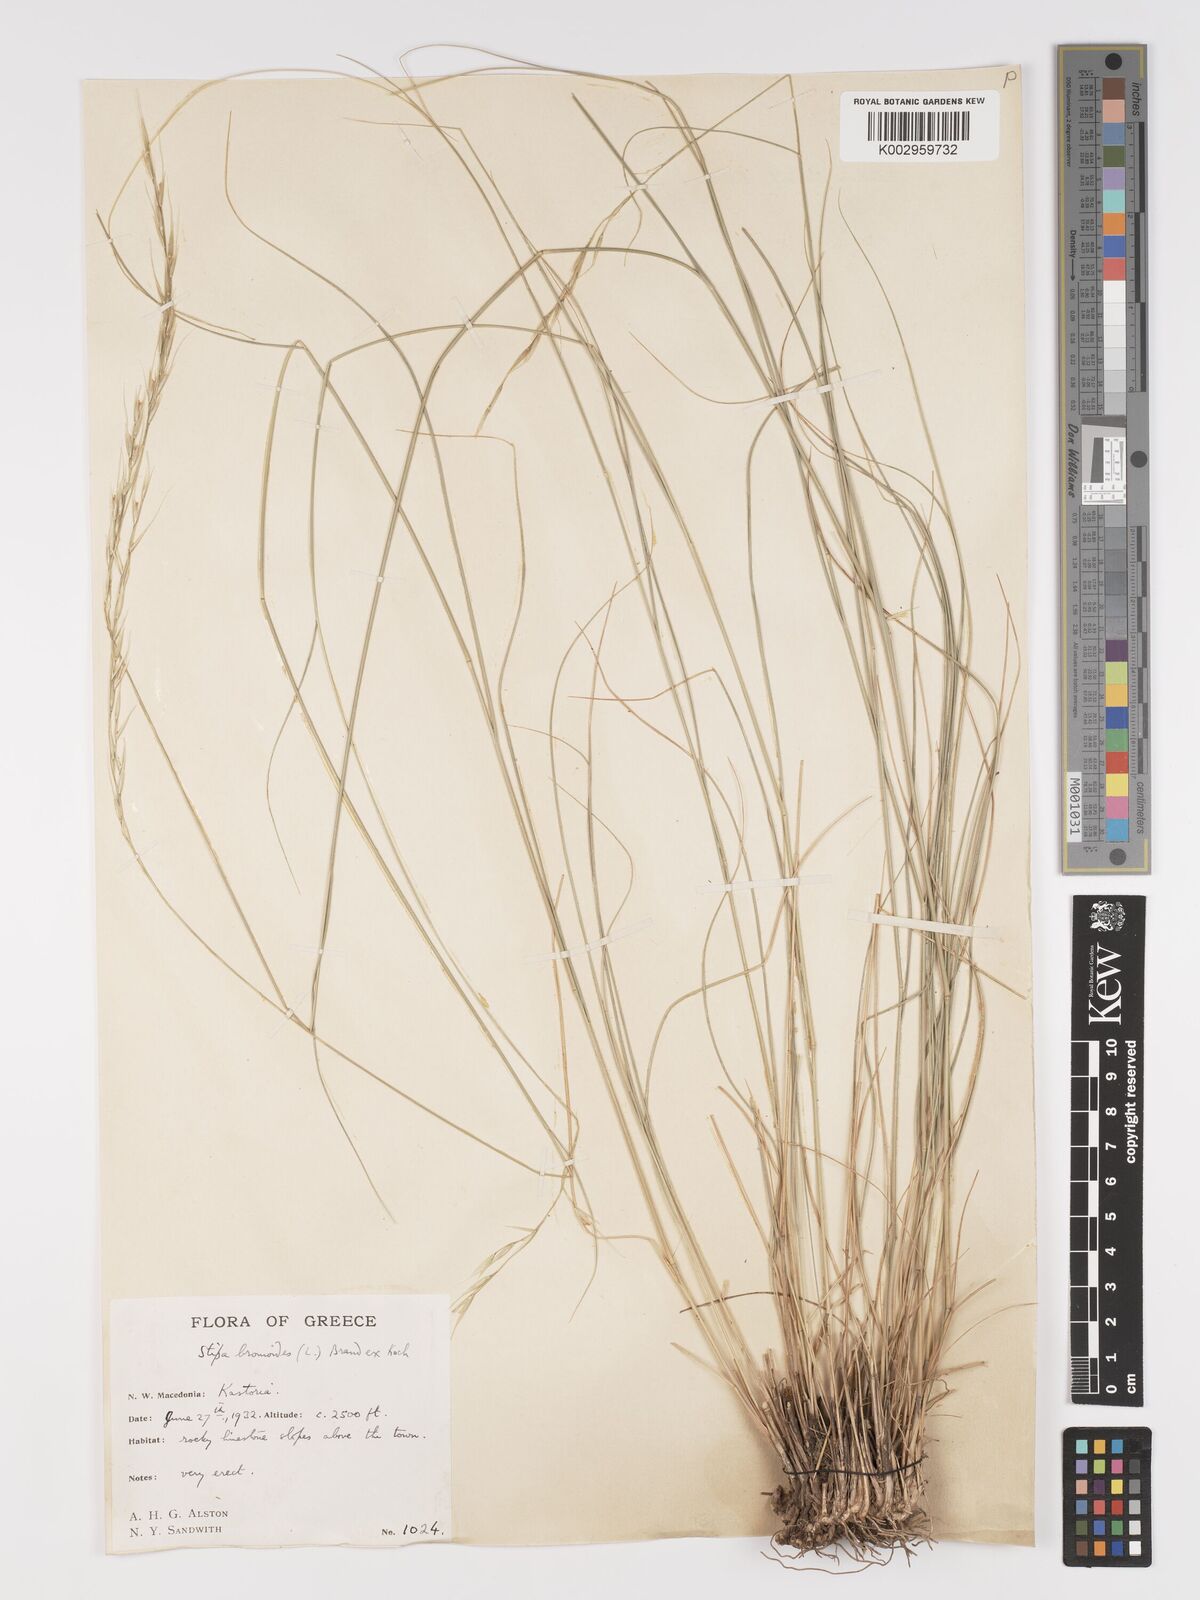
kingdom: Plantae
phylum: Tracheophyta
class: Liliopsida
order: Poales
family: Poaceae
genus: Achnatherum
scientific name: Achnatherum bromoides
